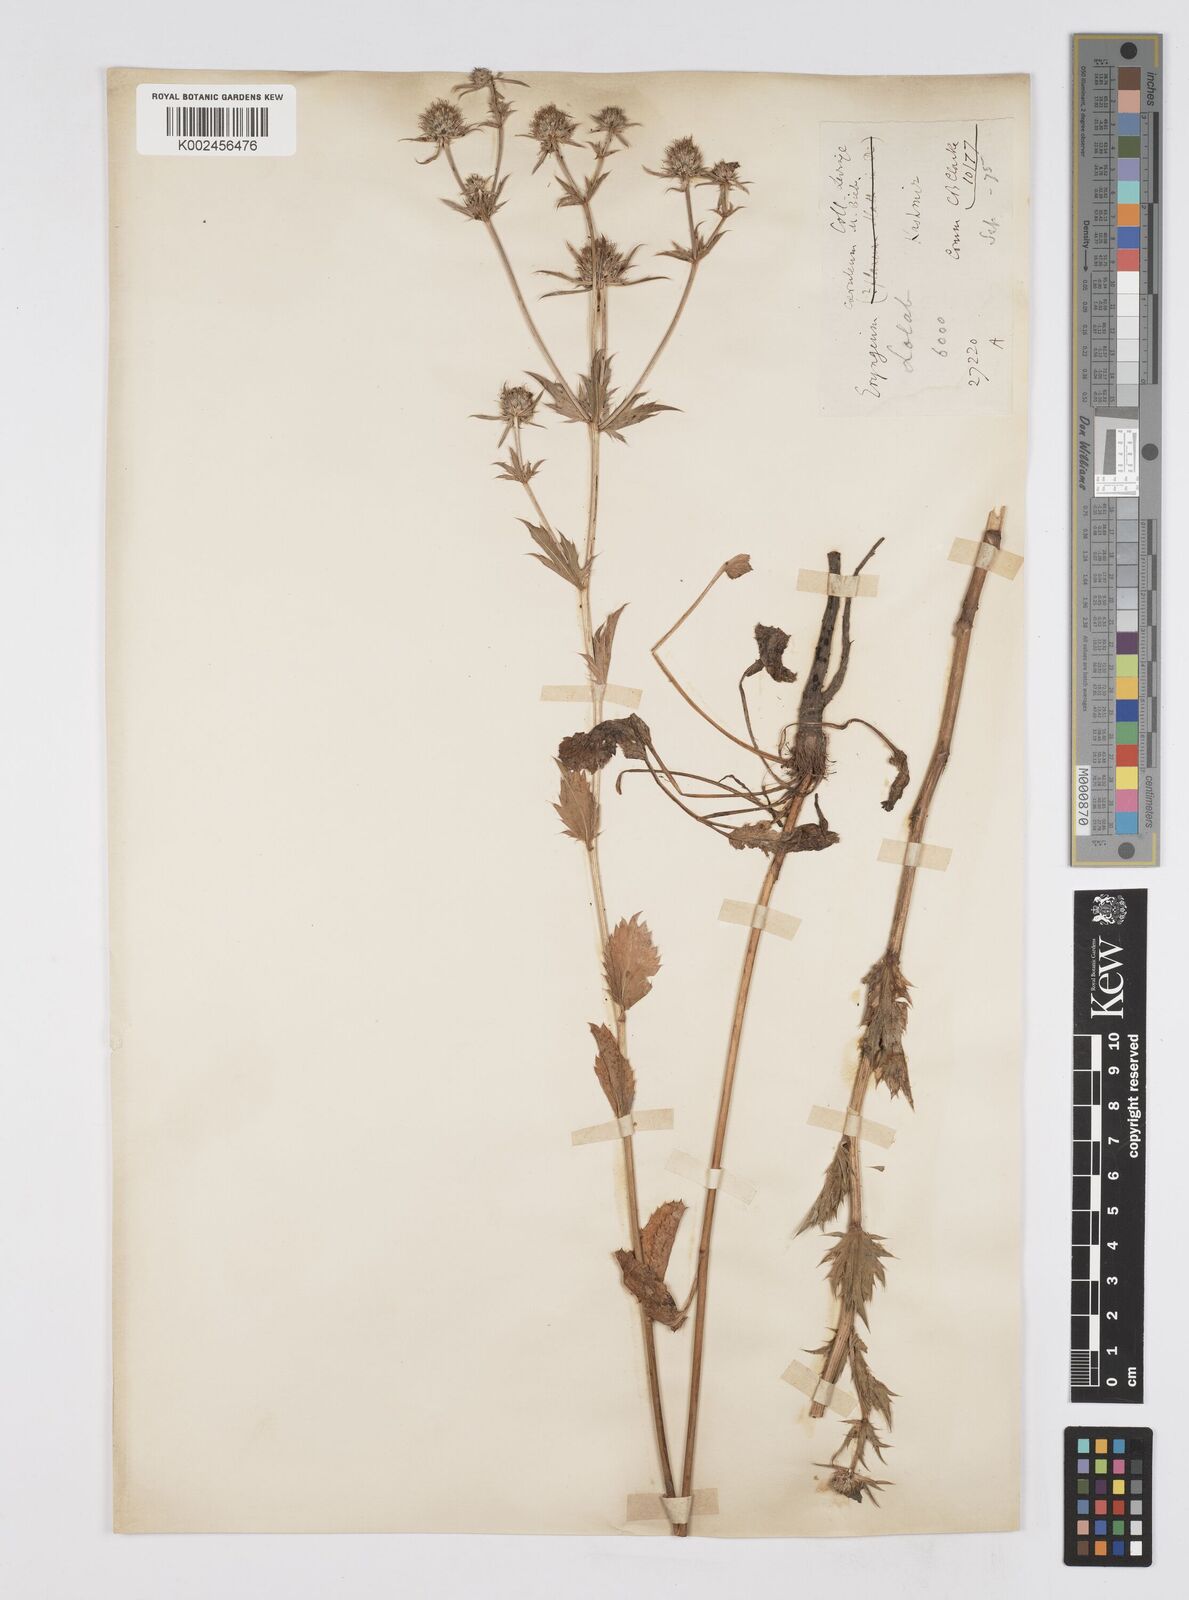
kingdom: Plantae
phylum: Tracheophyta
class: Magnoliopsida
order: Apiales
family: Apiaceae
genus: Eryngium
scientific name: Eryngium caeruleum
